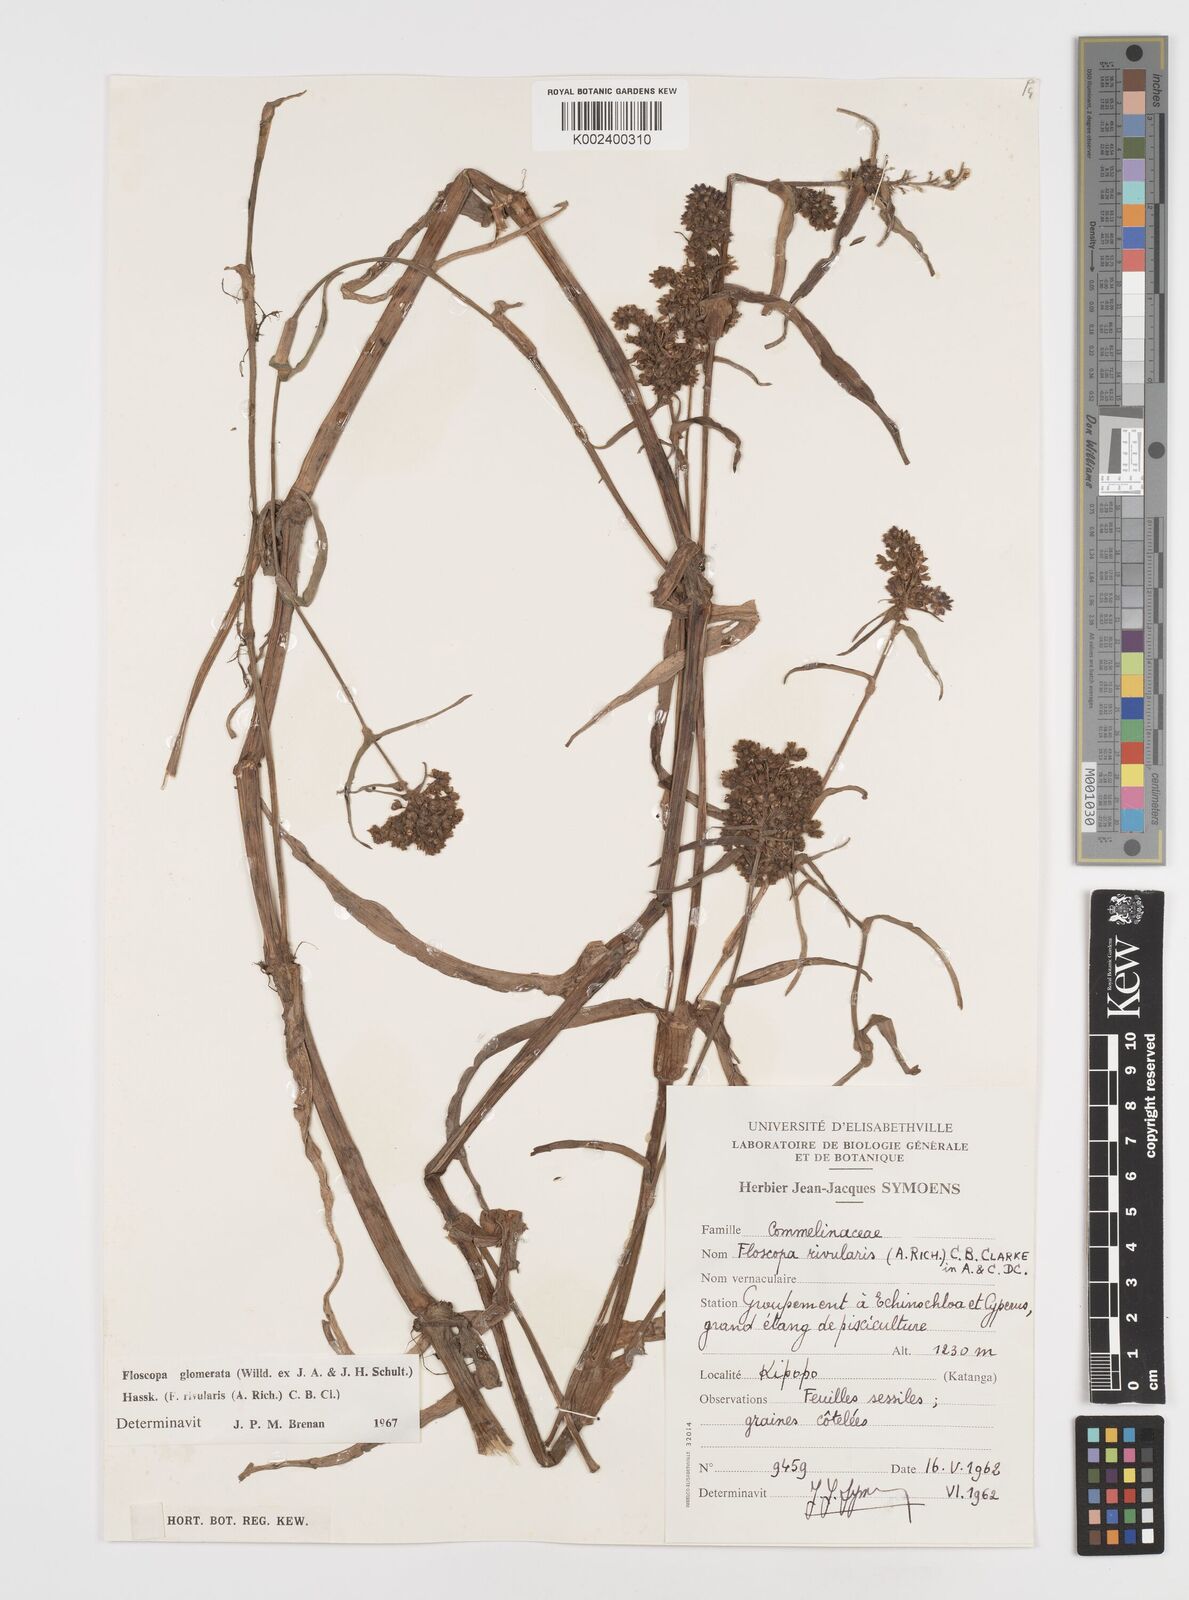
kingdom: Plantae
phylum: Tracheophyta
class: Liliopsida
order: Commelinales
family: Commelinaceae
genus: Floscopa
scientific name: Floscopa glomerata
